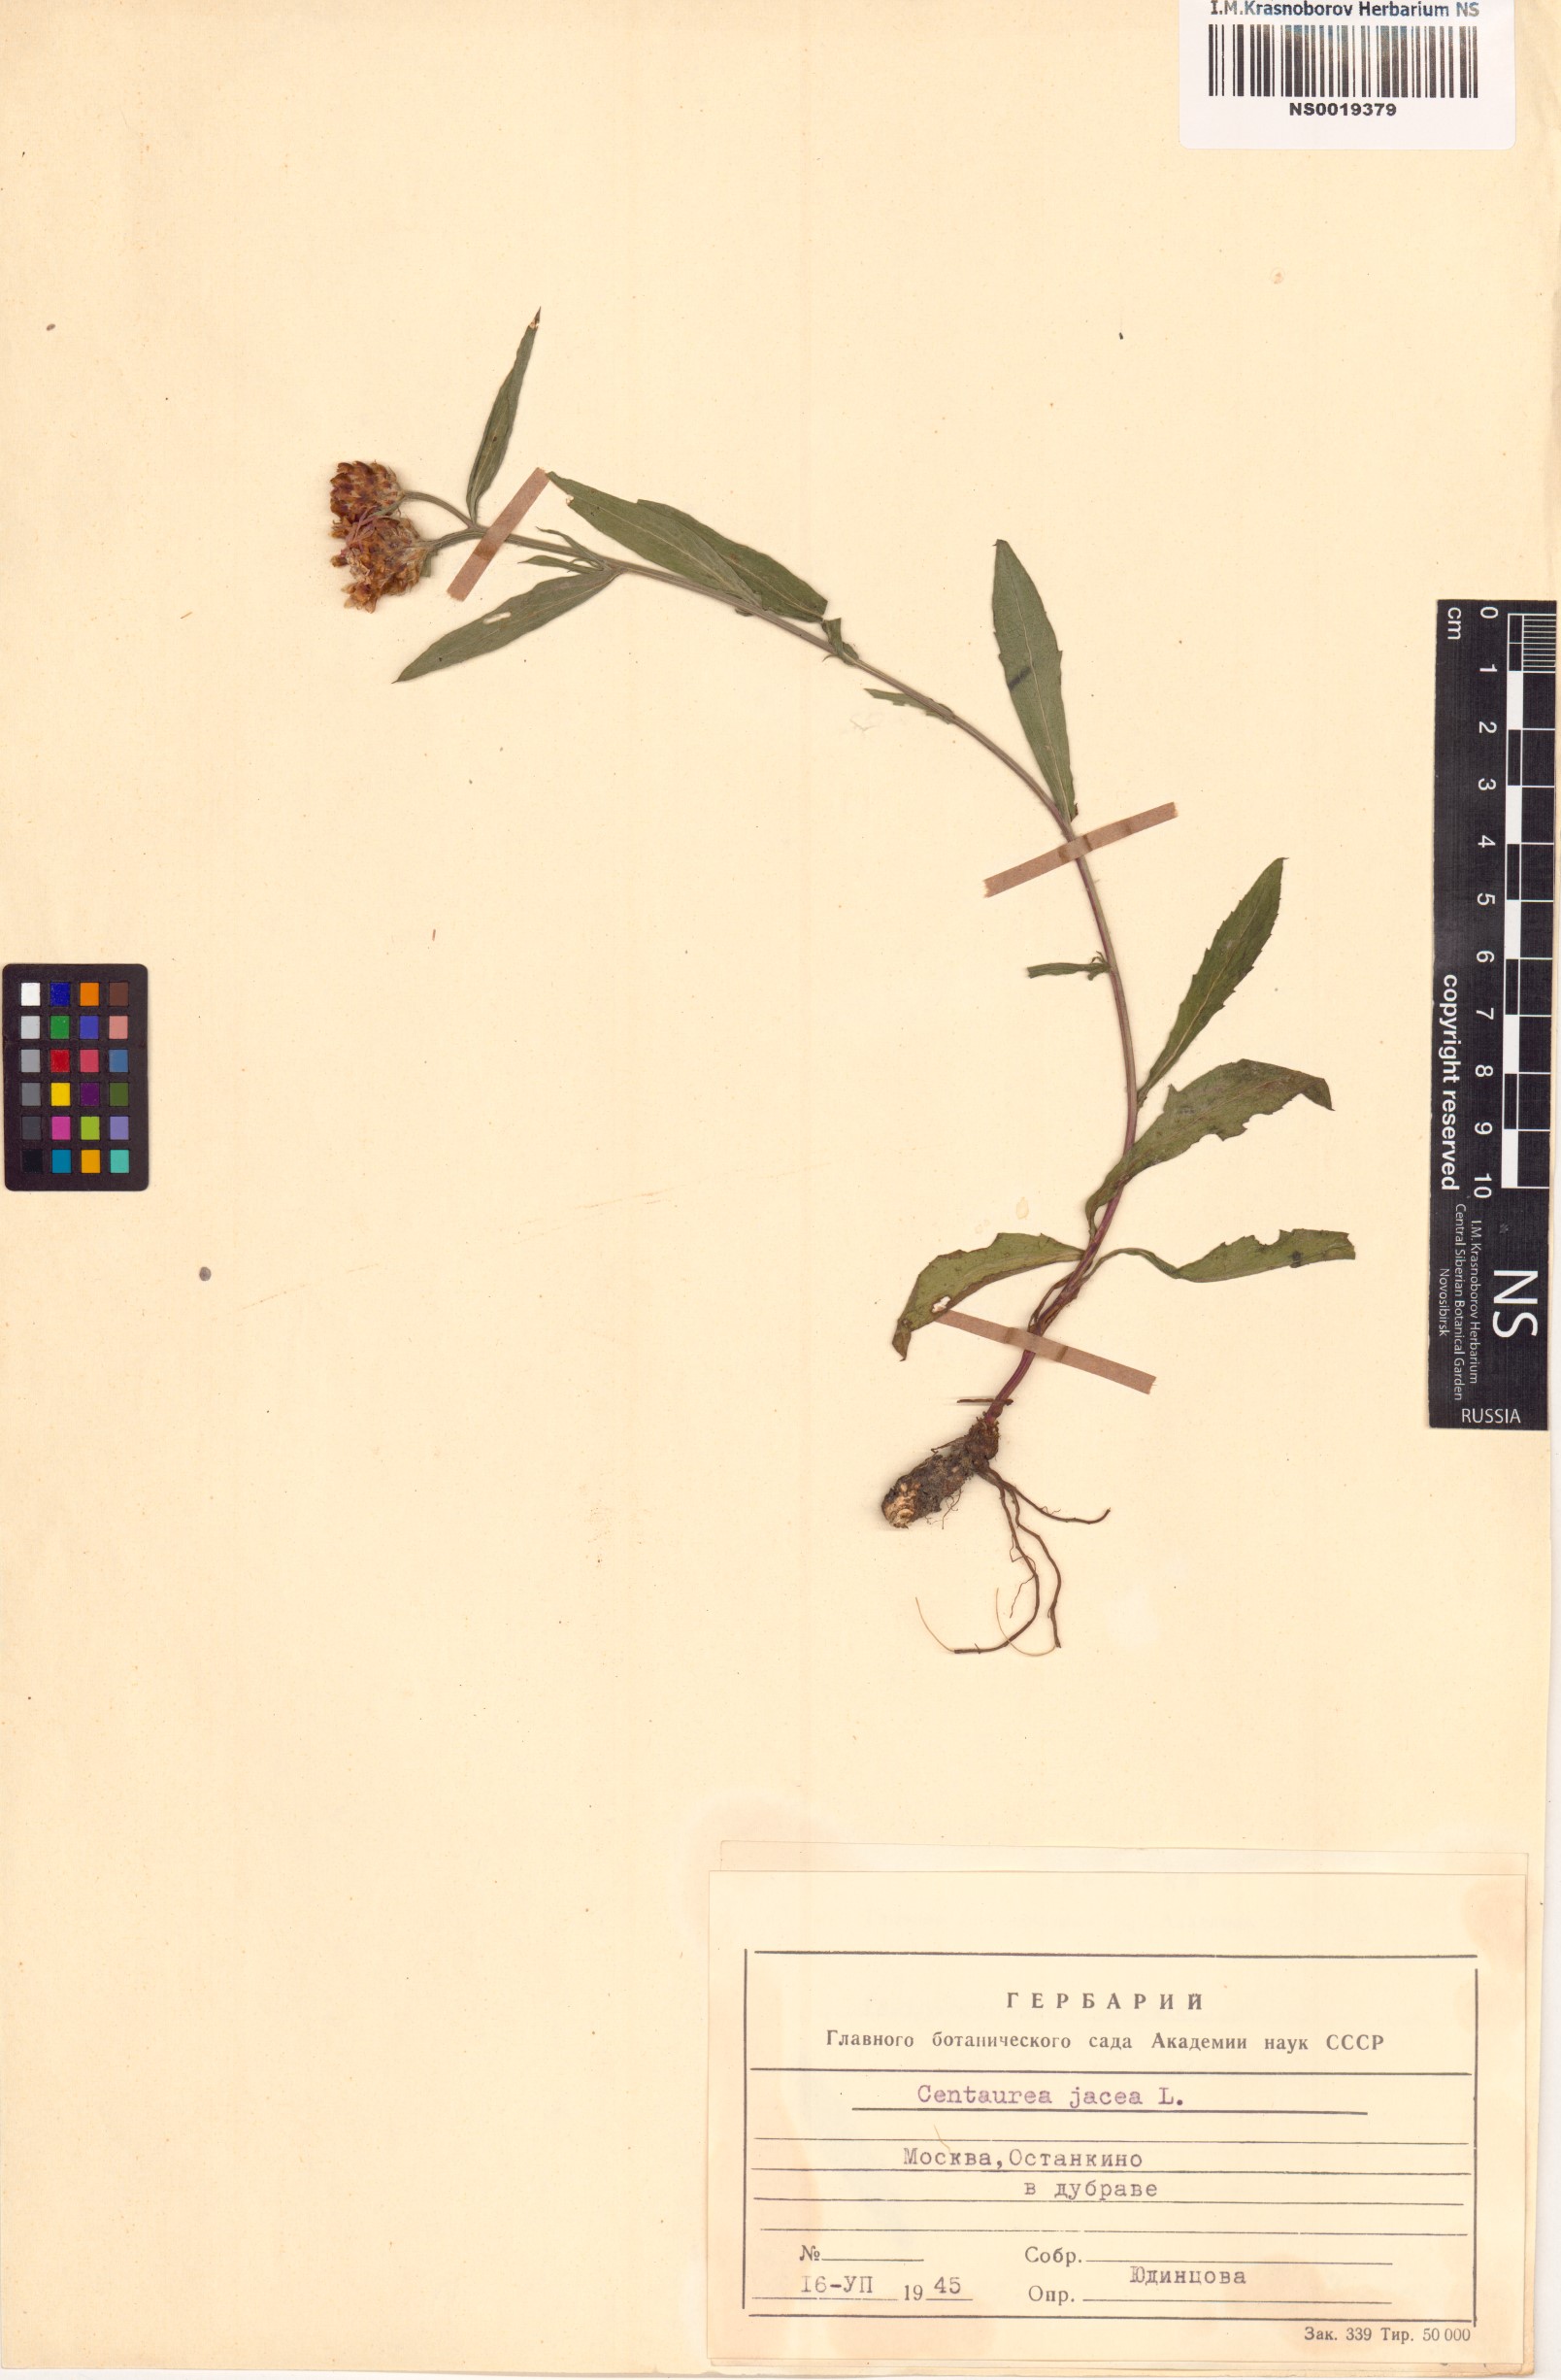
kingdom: Plantae
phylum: Tracheophyta
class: Magnoliopsida
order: Asterales
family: Asteraceae
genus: Centaurea
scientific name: Centaurea jacea
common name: Brown knapweed
